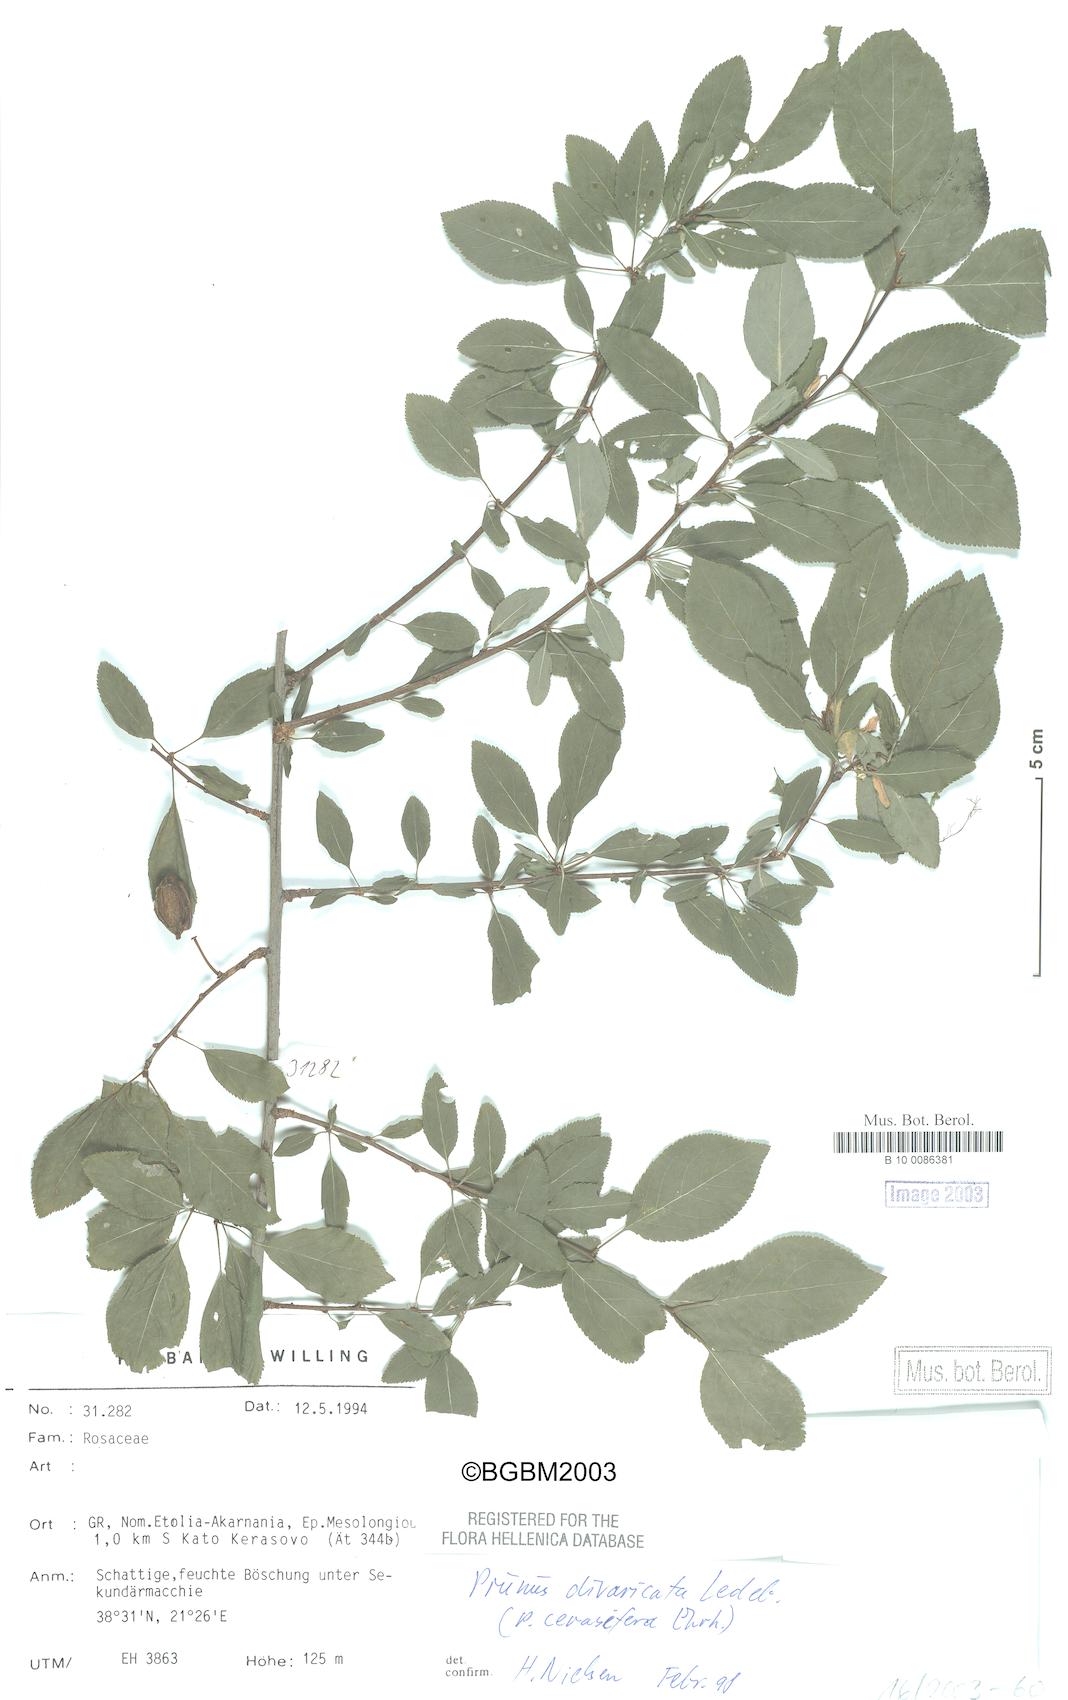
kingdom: Plantae
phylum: Tracheophyta
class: Magnoliopsida
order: Rosales
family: Rosaceae
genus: Prunus
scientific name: Prunus cerasifera
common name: Cherry plum
